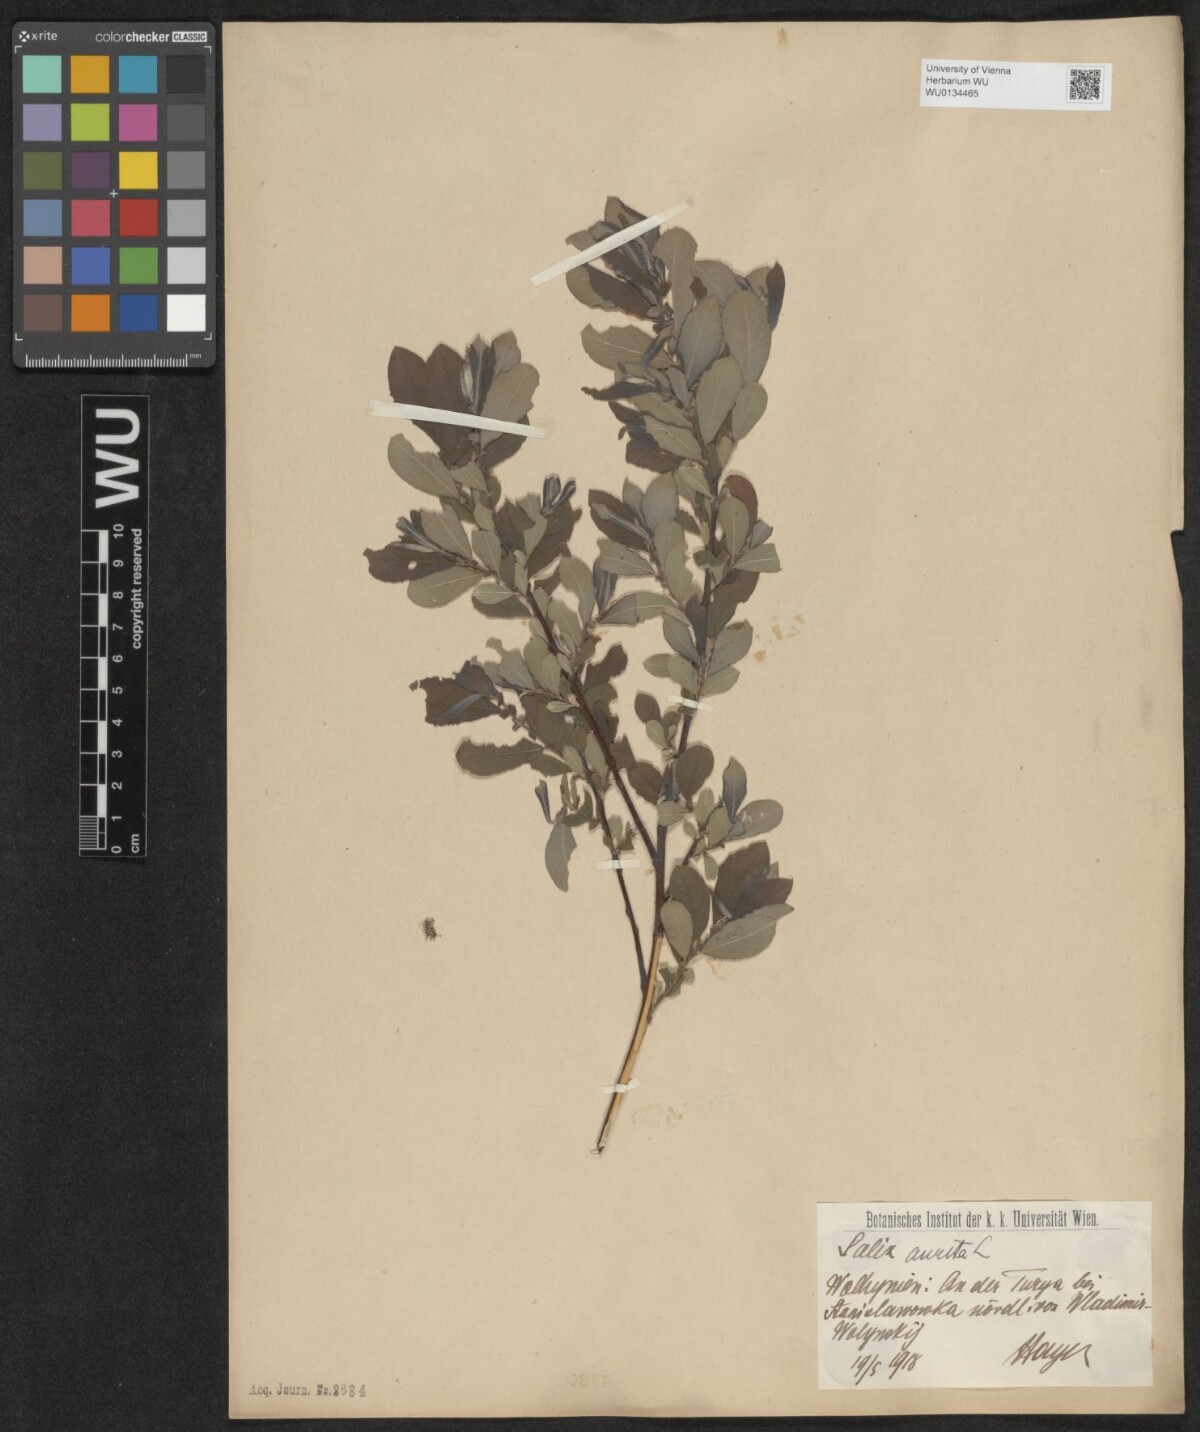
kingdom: Plantae
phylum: Tracheophyta
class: Magnoliopsida
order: Malpighiales
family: Salicaceae
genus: Salix
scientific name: Salix aurita
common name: Eared willow
